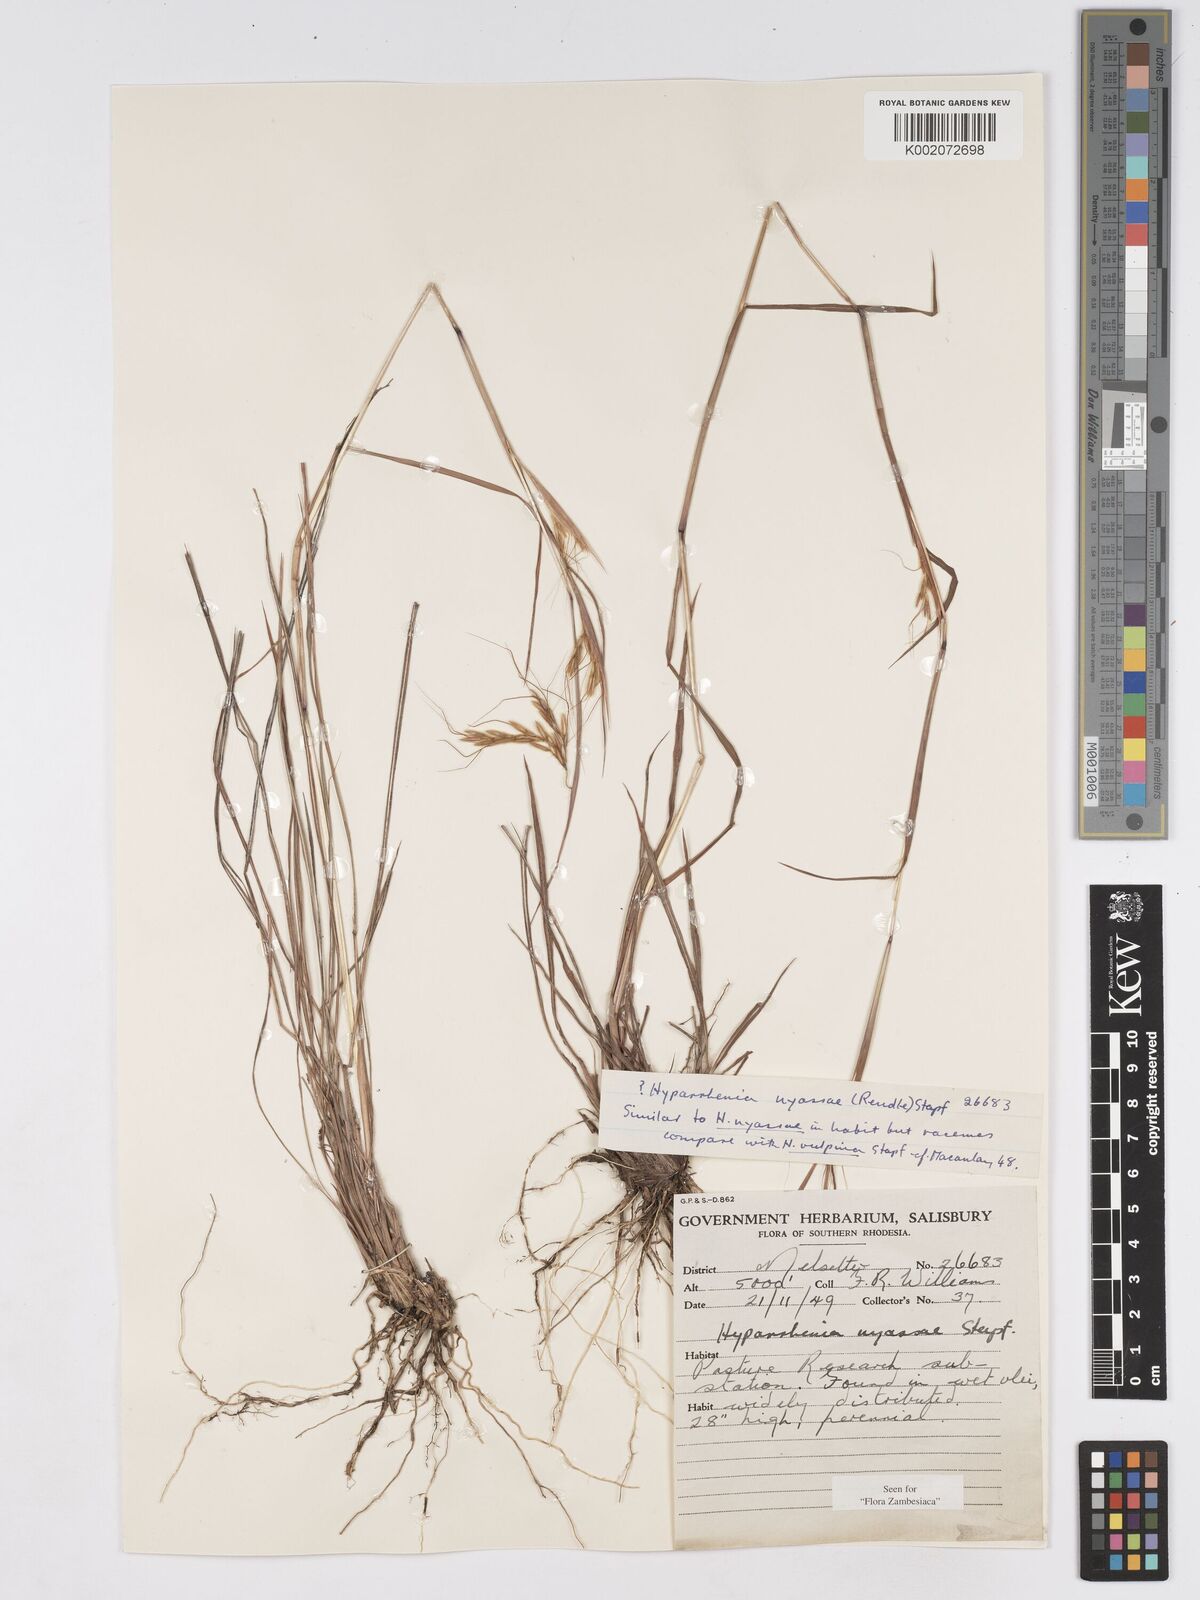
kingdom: Plantae
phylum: Tracheophyta
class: Liliopsida
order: Poales
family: Poaceae
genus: Hyparrhenia
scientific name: Hyparrhenia nyassae
